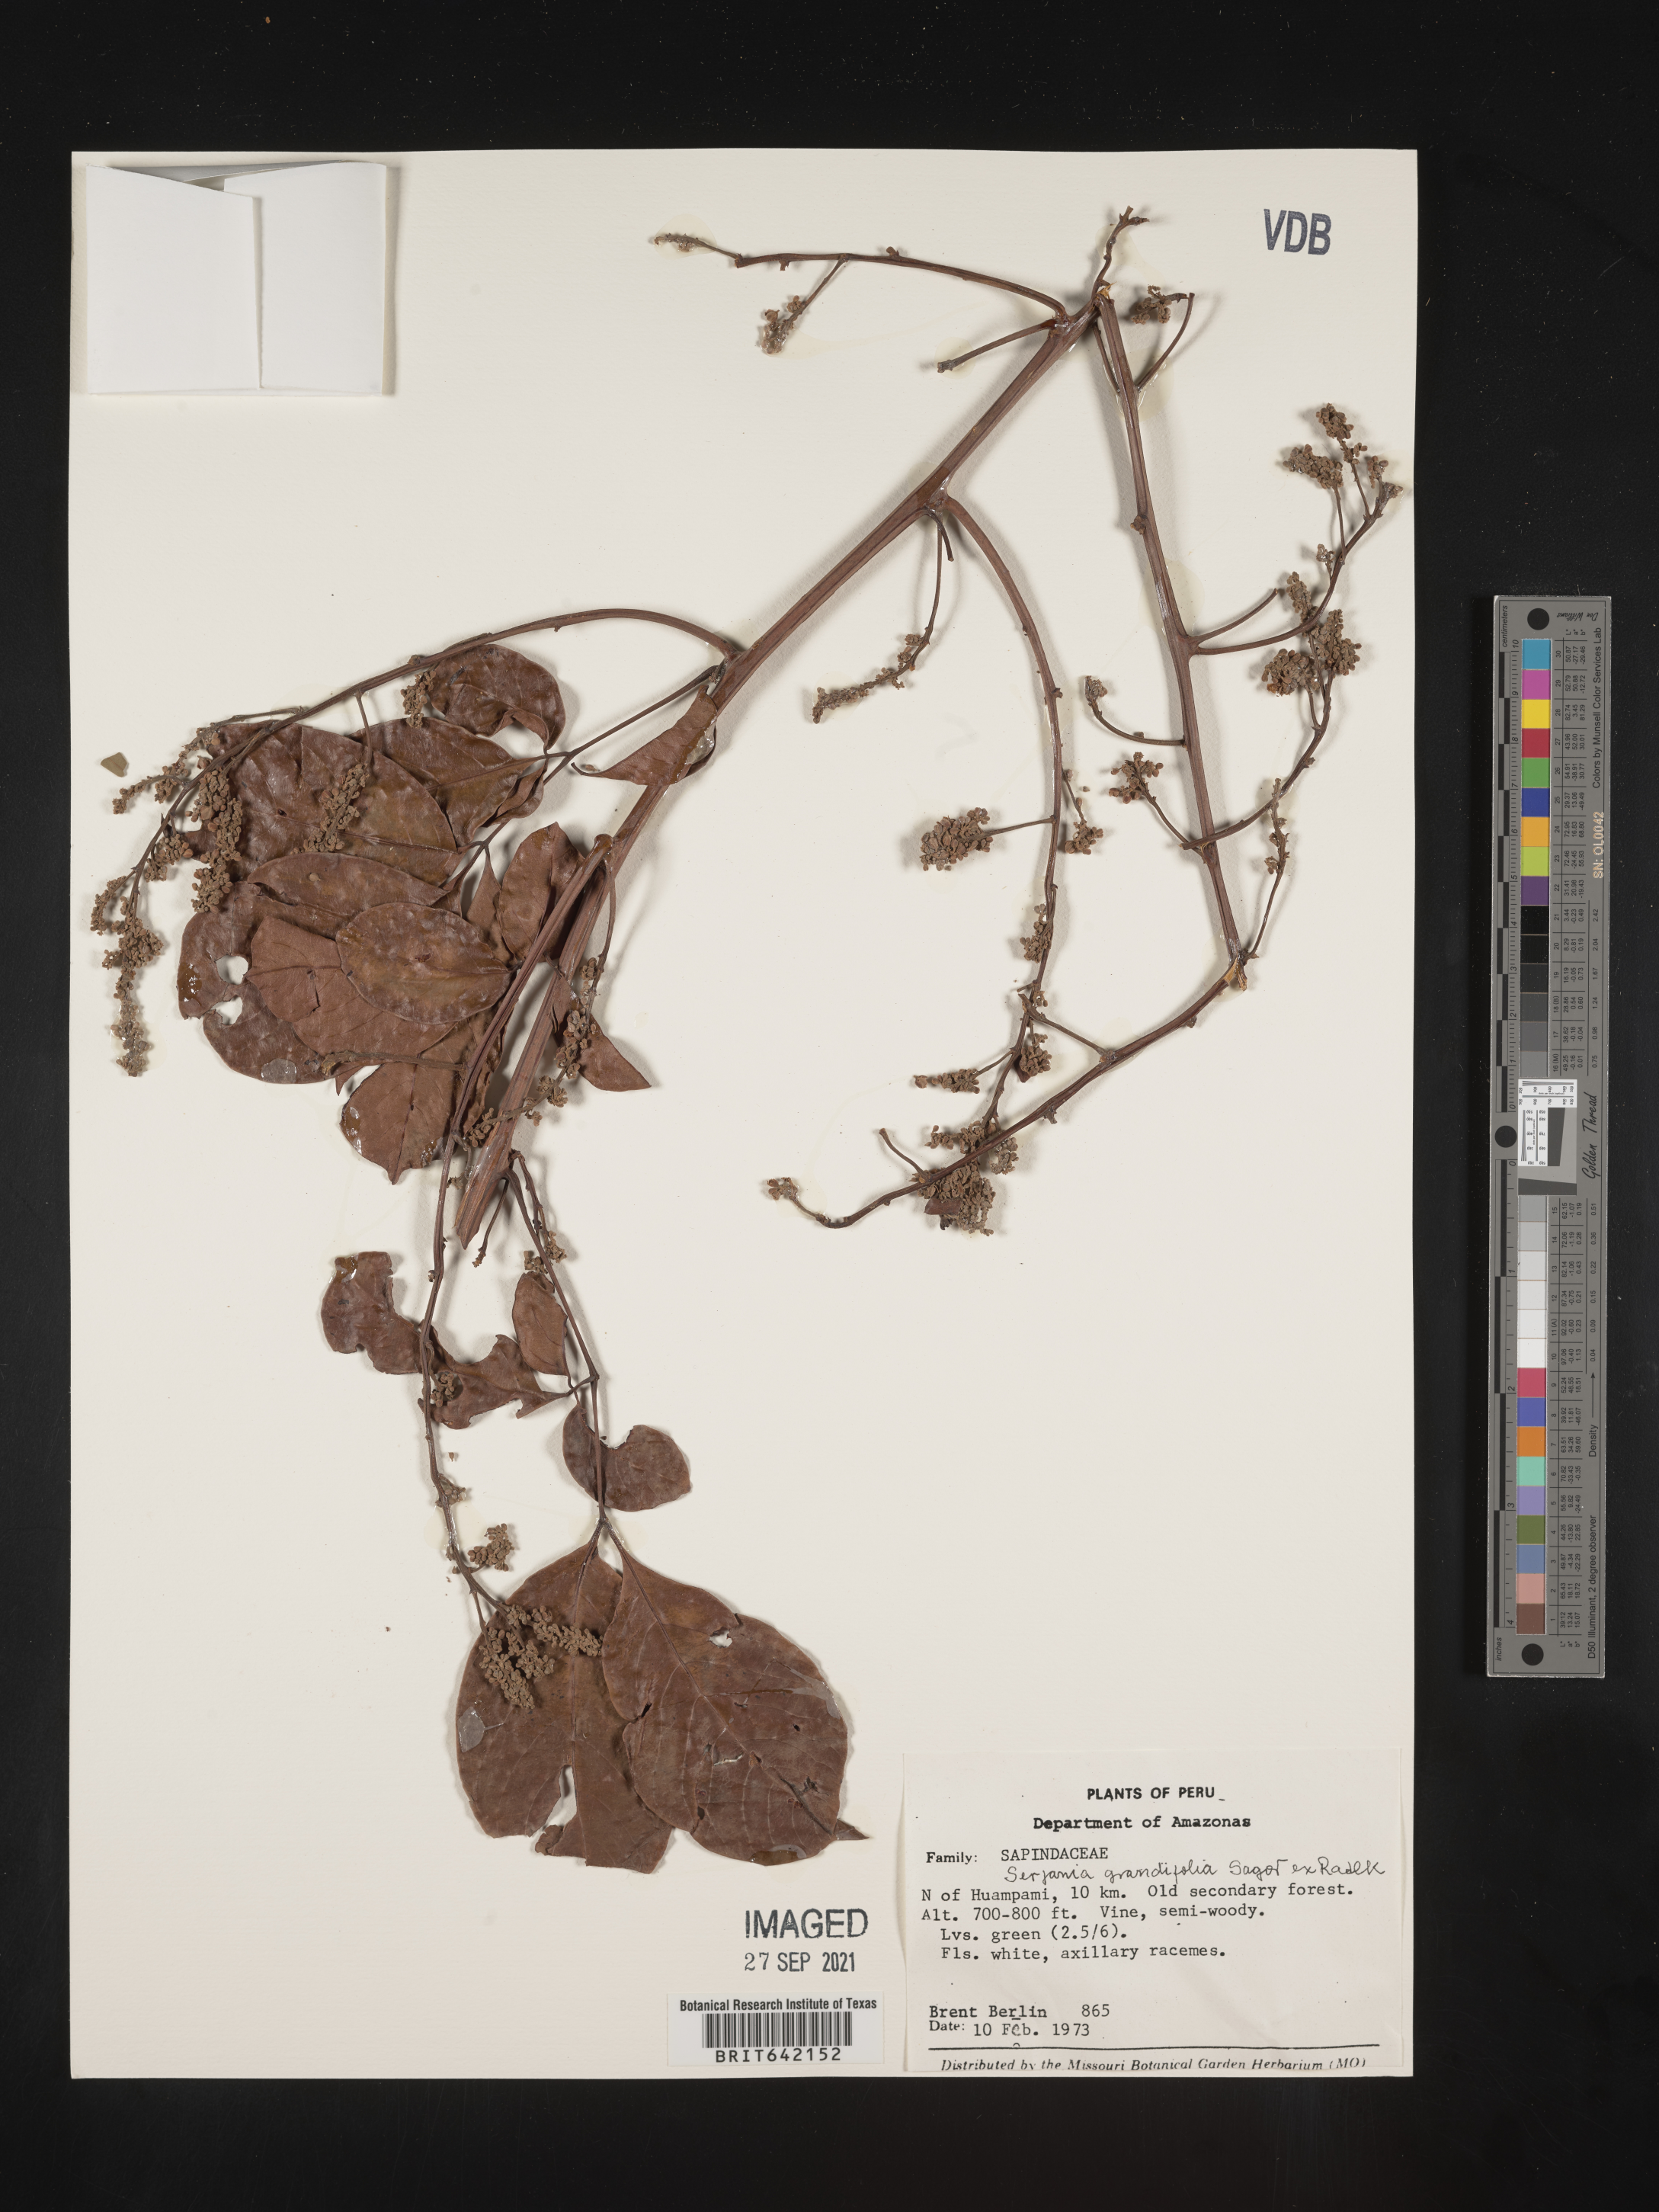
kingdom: Plantae
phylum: Tracheophyta
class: Magnoliopsida
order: Sapindales
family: Sapindaceae
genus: Serjania
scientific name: Serjania
